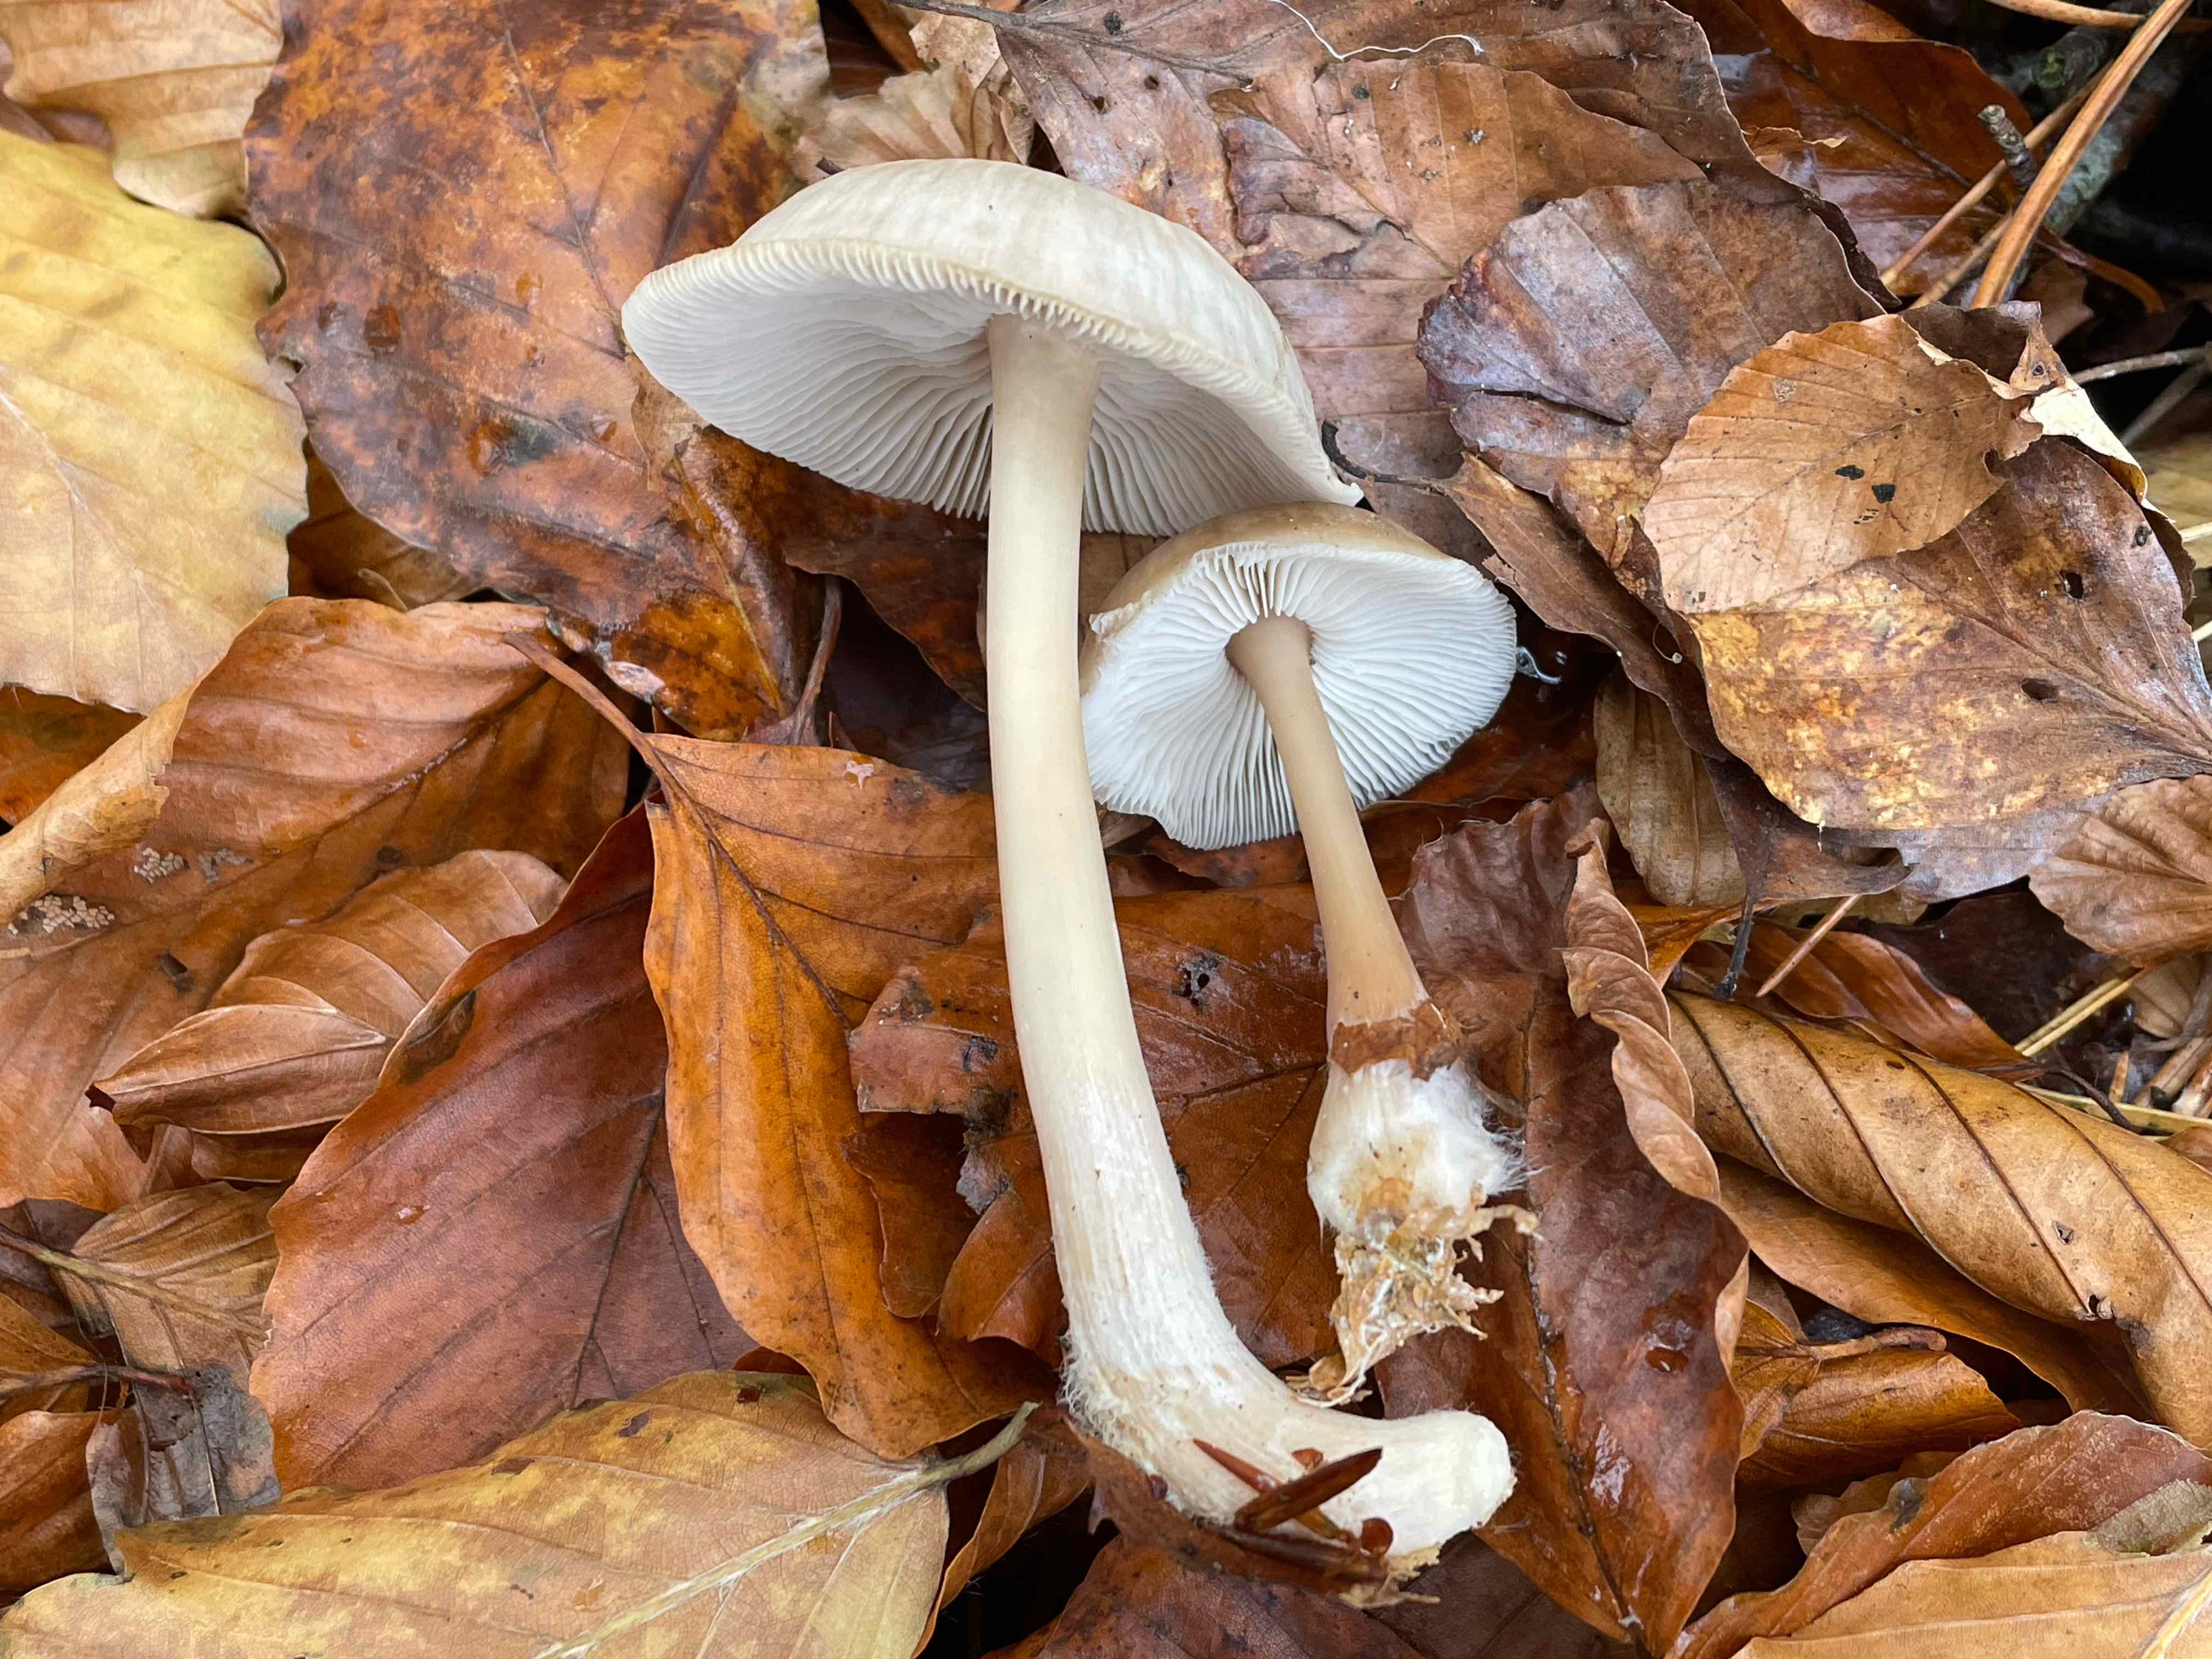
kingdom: Fungi
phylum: Basidiomycota
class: Agaricomycetes
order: Agaricales
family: Omphalotaceae
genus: Rhodocollybia
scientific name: Rhodocollybia asema
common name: horngrå fladhat
